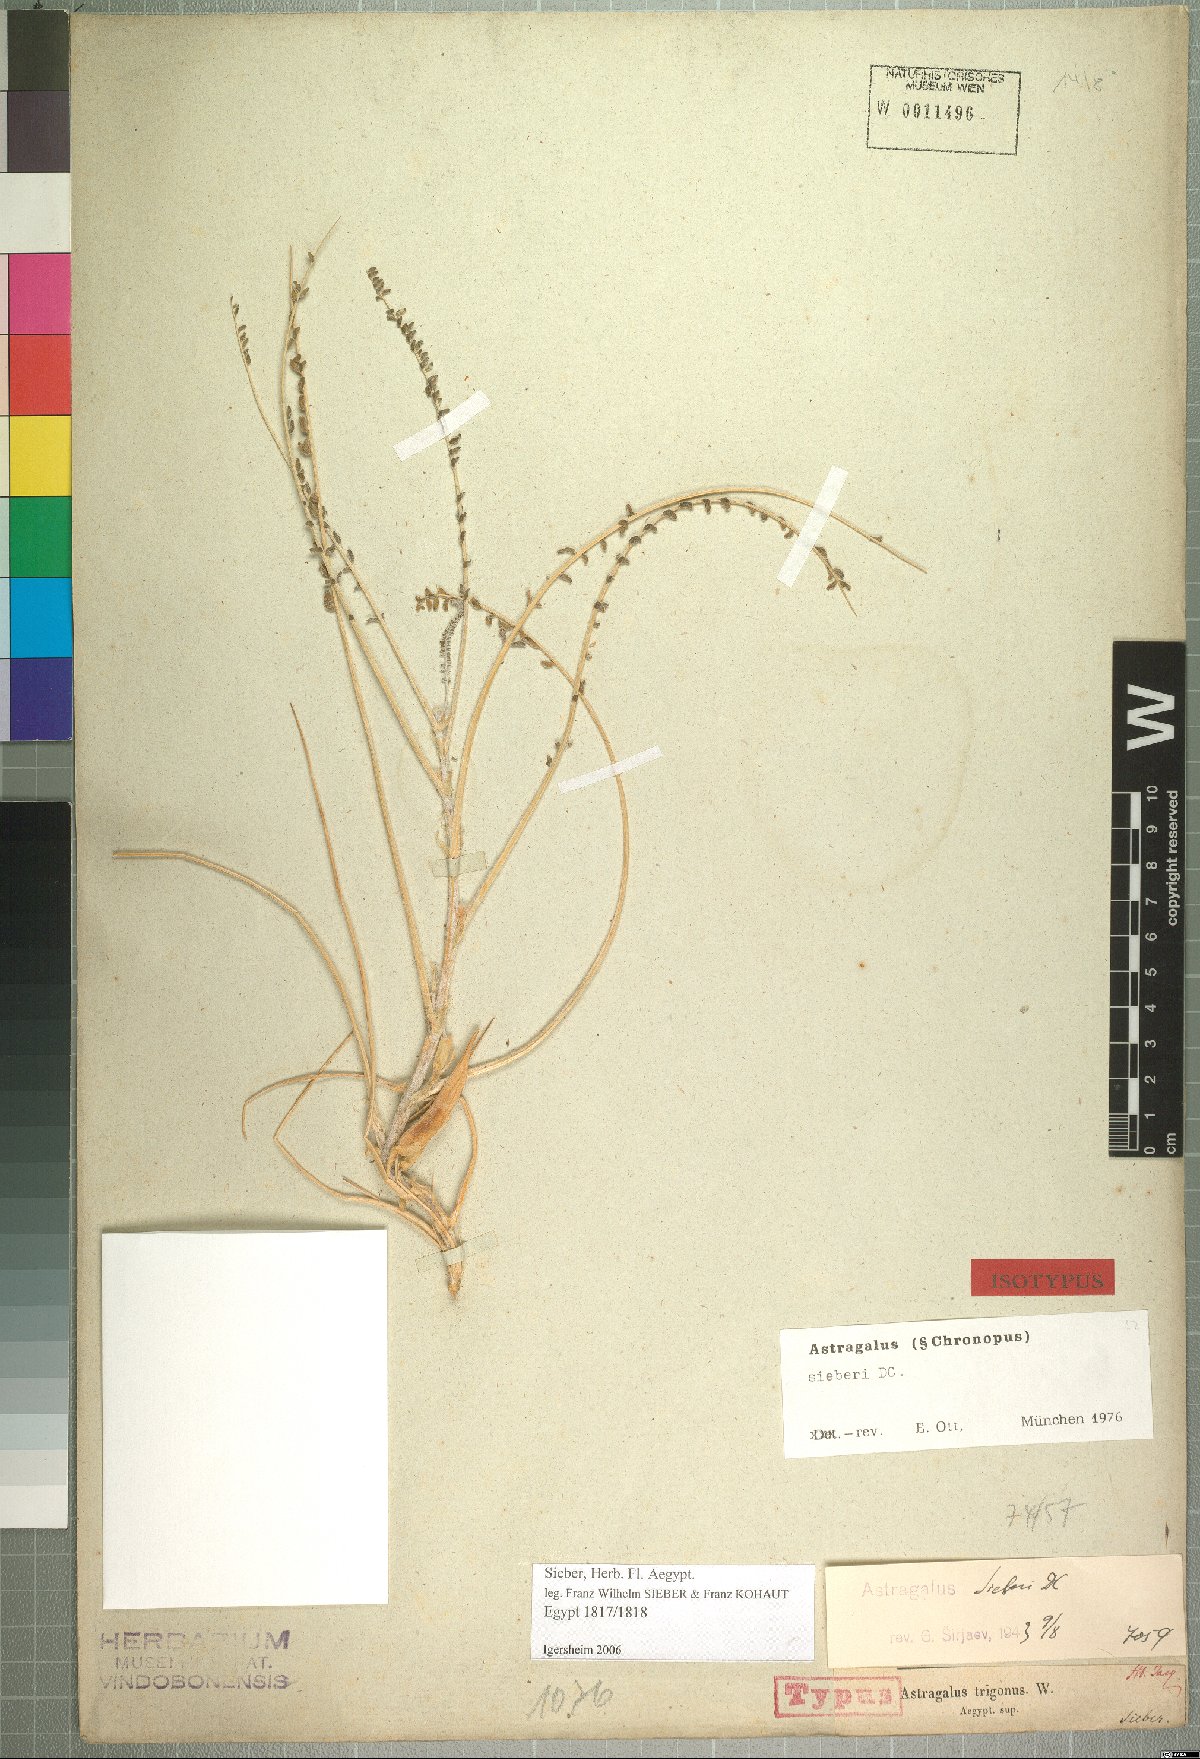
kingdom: Plantae
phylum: Tracheophyta
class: Magnoliopsida
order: Fabales
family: Fabaceae
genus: Astragalus
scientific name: Astragalus sieberi
